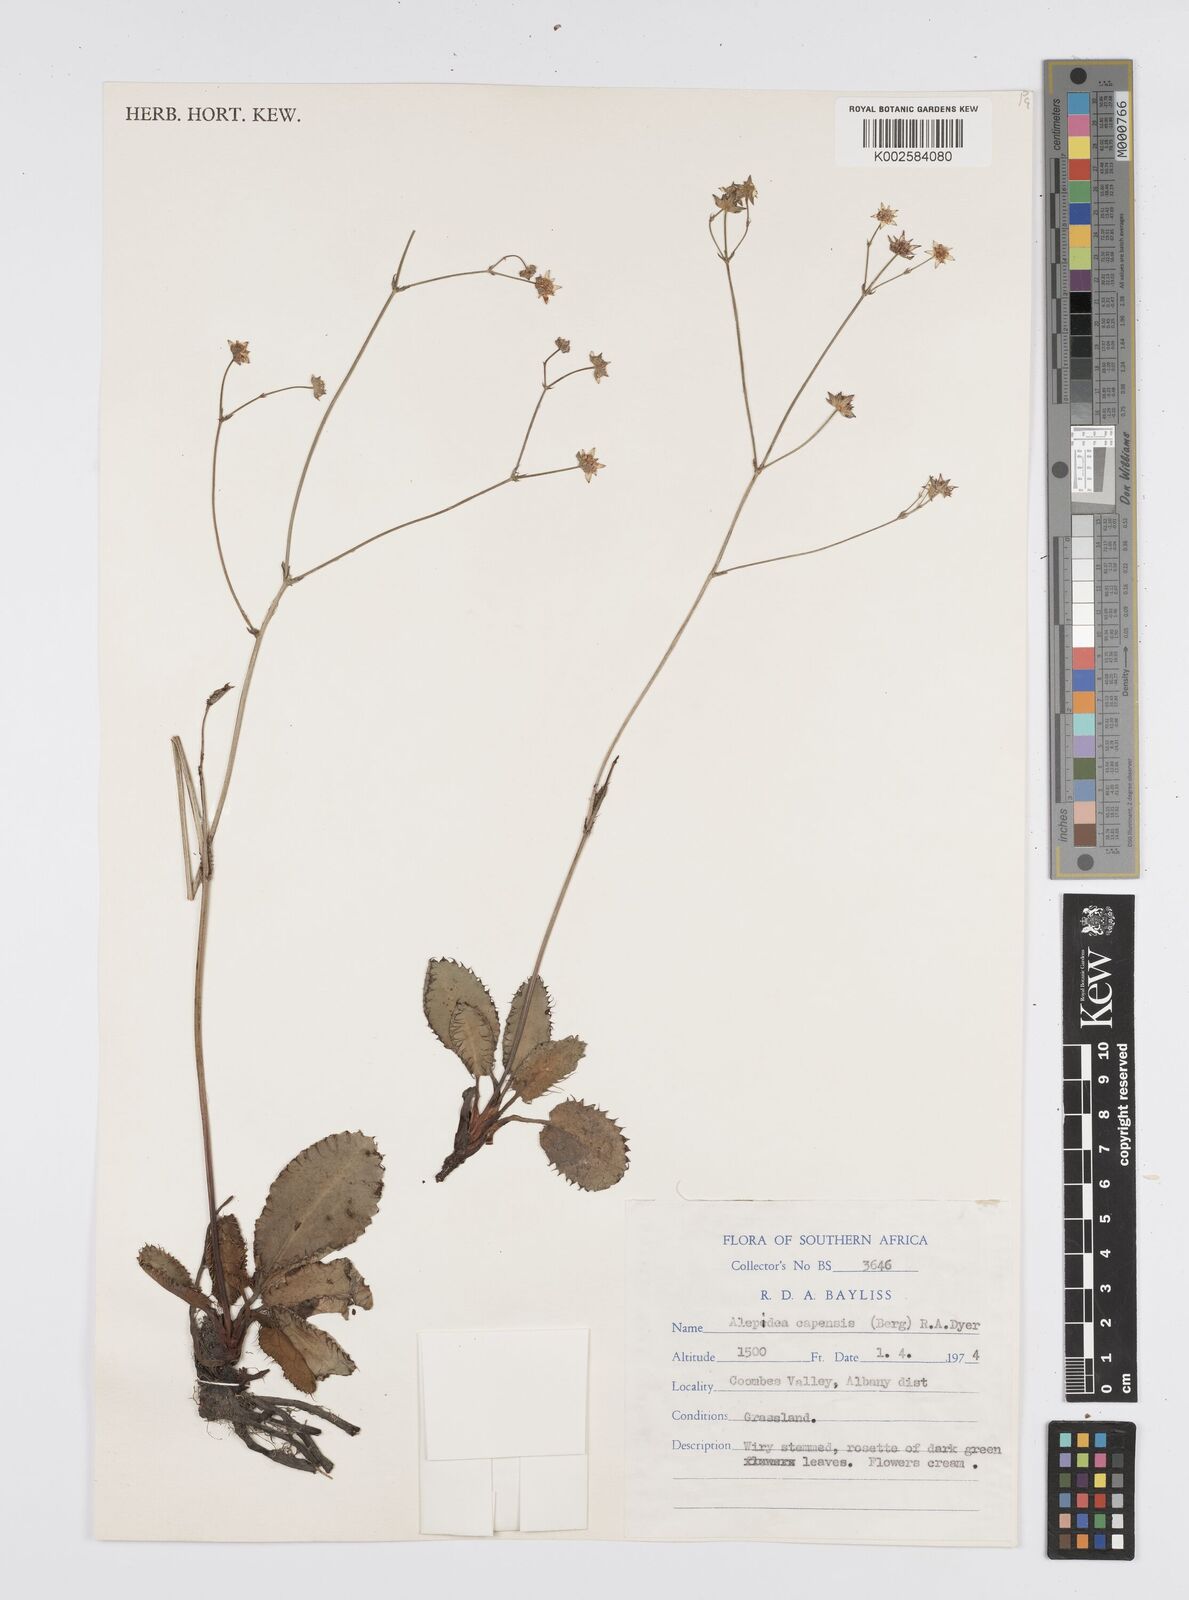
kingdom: Plantae
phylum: Tracheophyta
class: Magnoliopsida
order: Apiales
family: Apiaceae
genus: Alepidea
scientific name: Alepidea capensis
